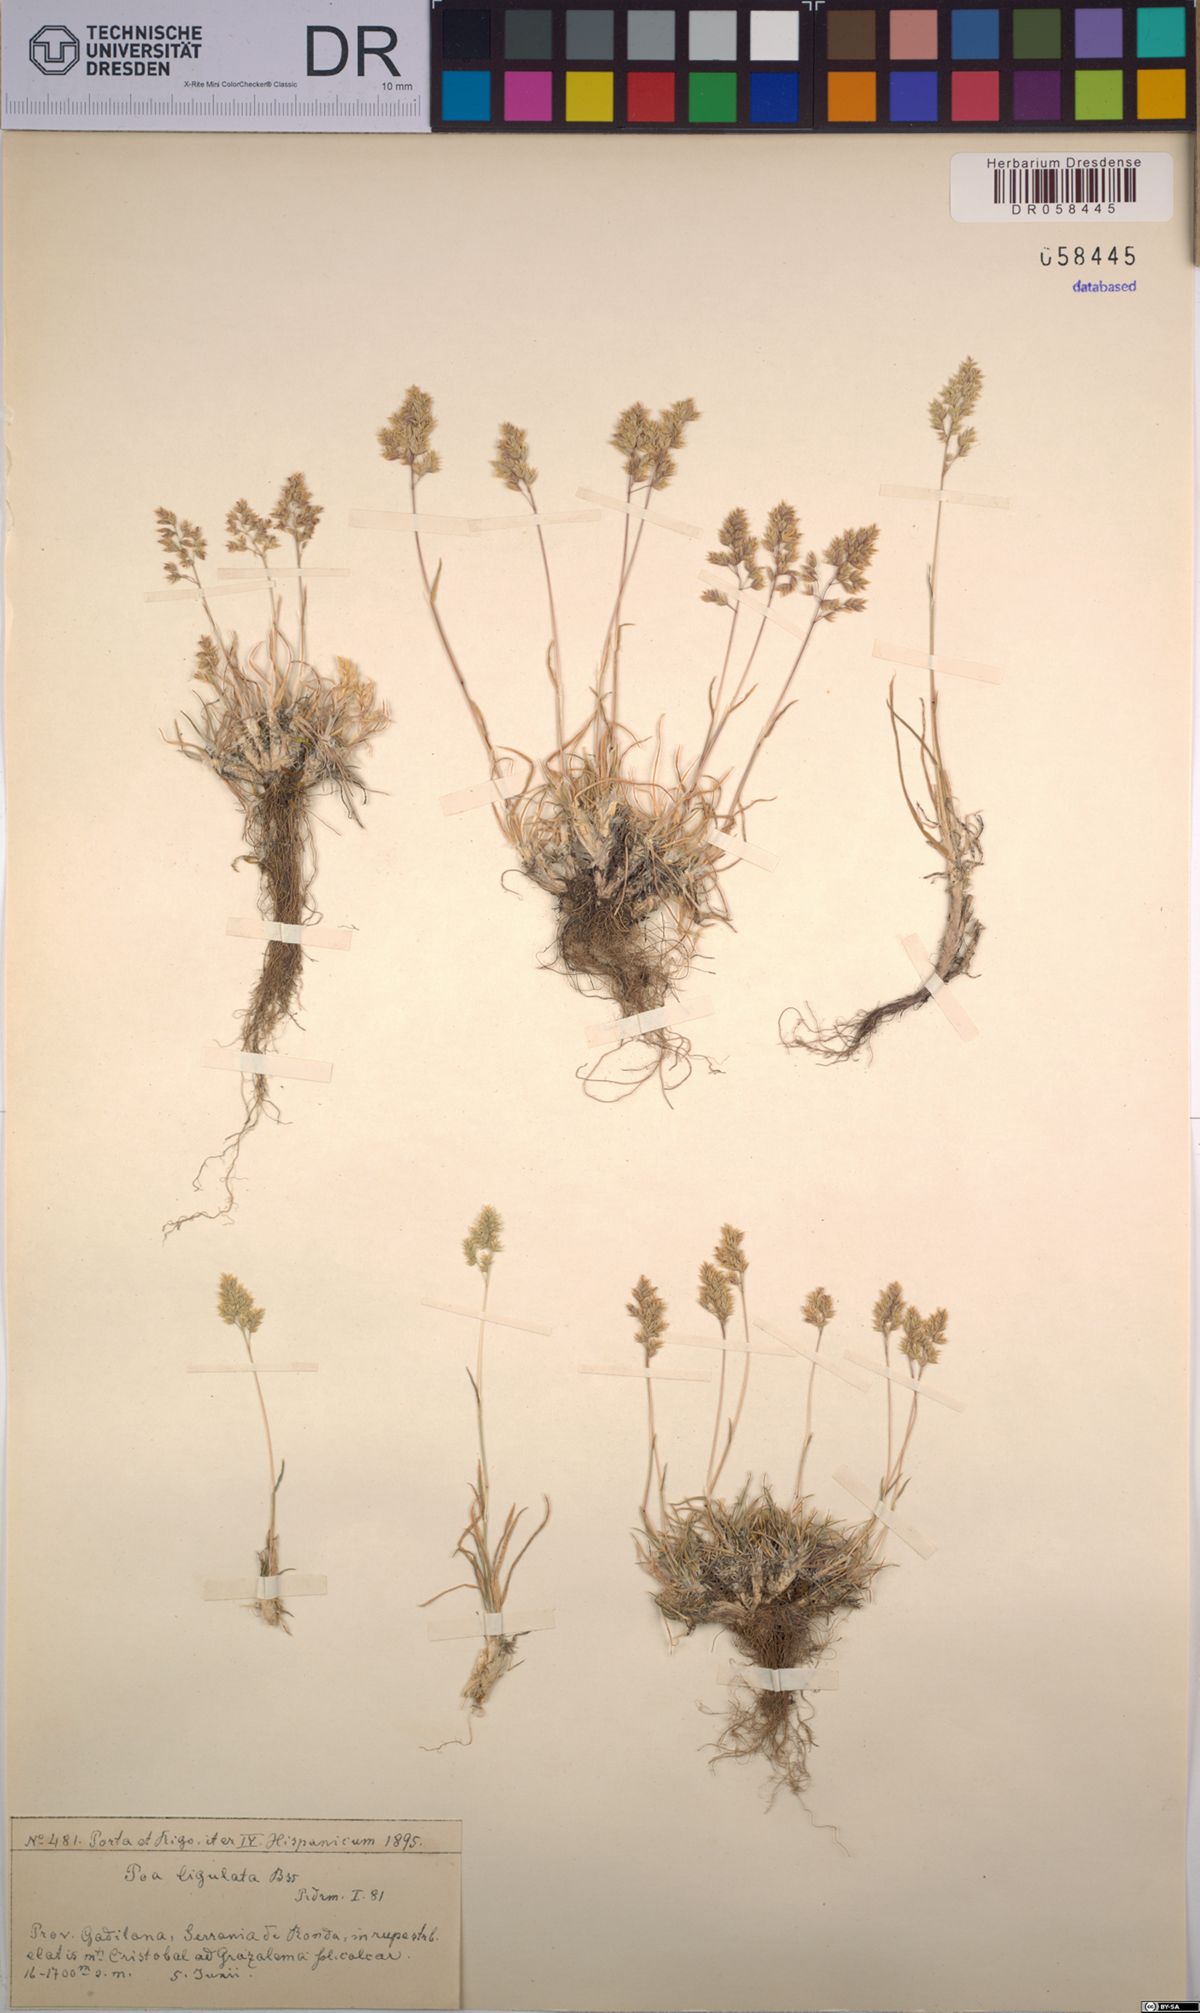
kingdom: Plantae
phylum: Tracheophyta
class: Liliopsida
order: Poales
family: Poaceae
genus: Poa
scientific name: Poa ligulata
